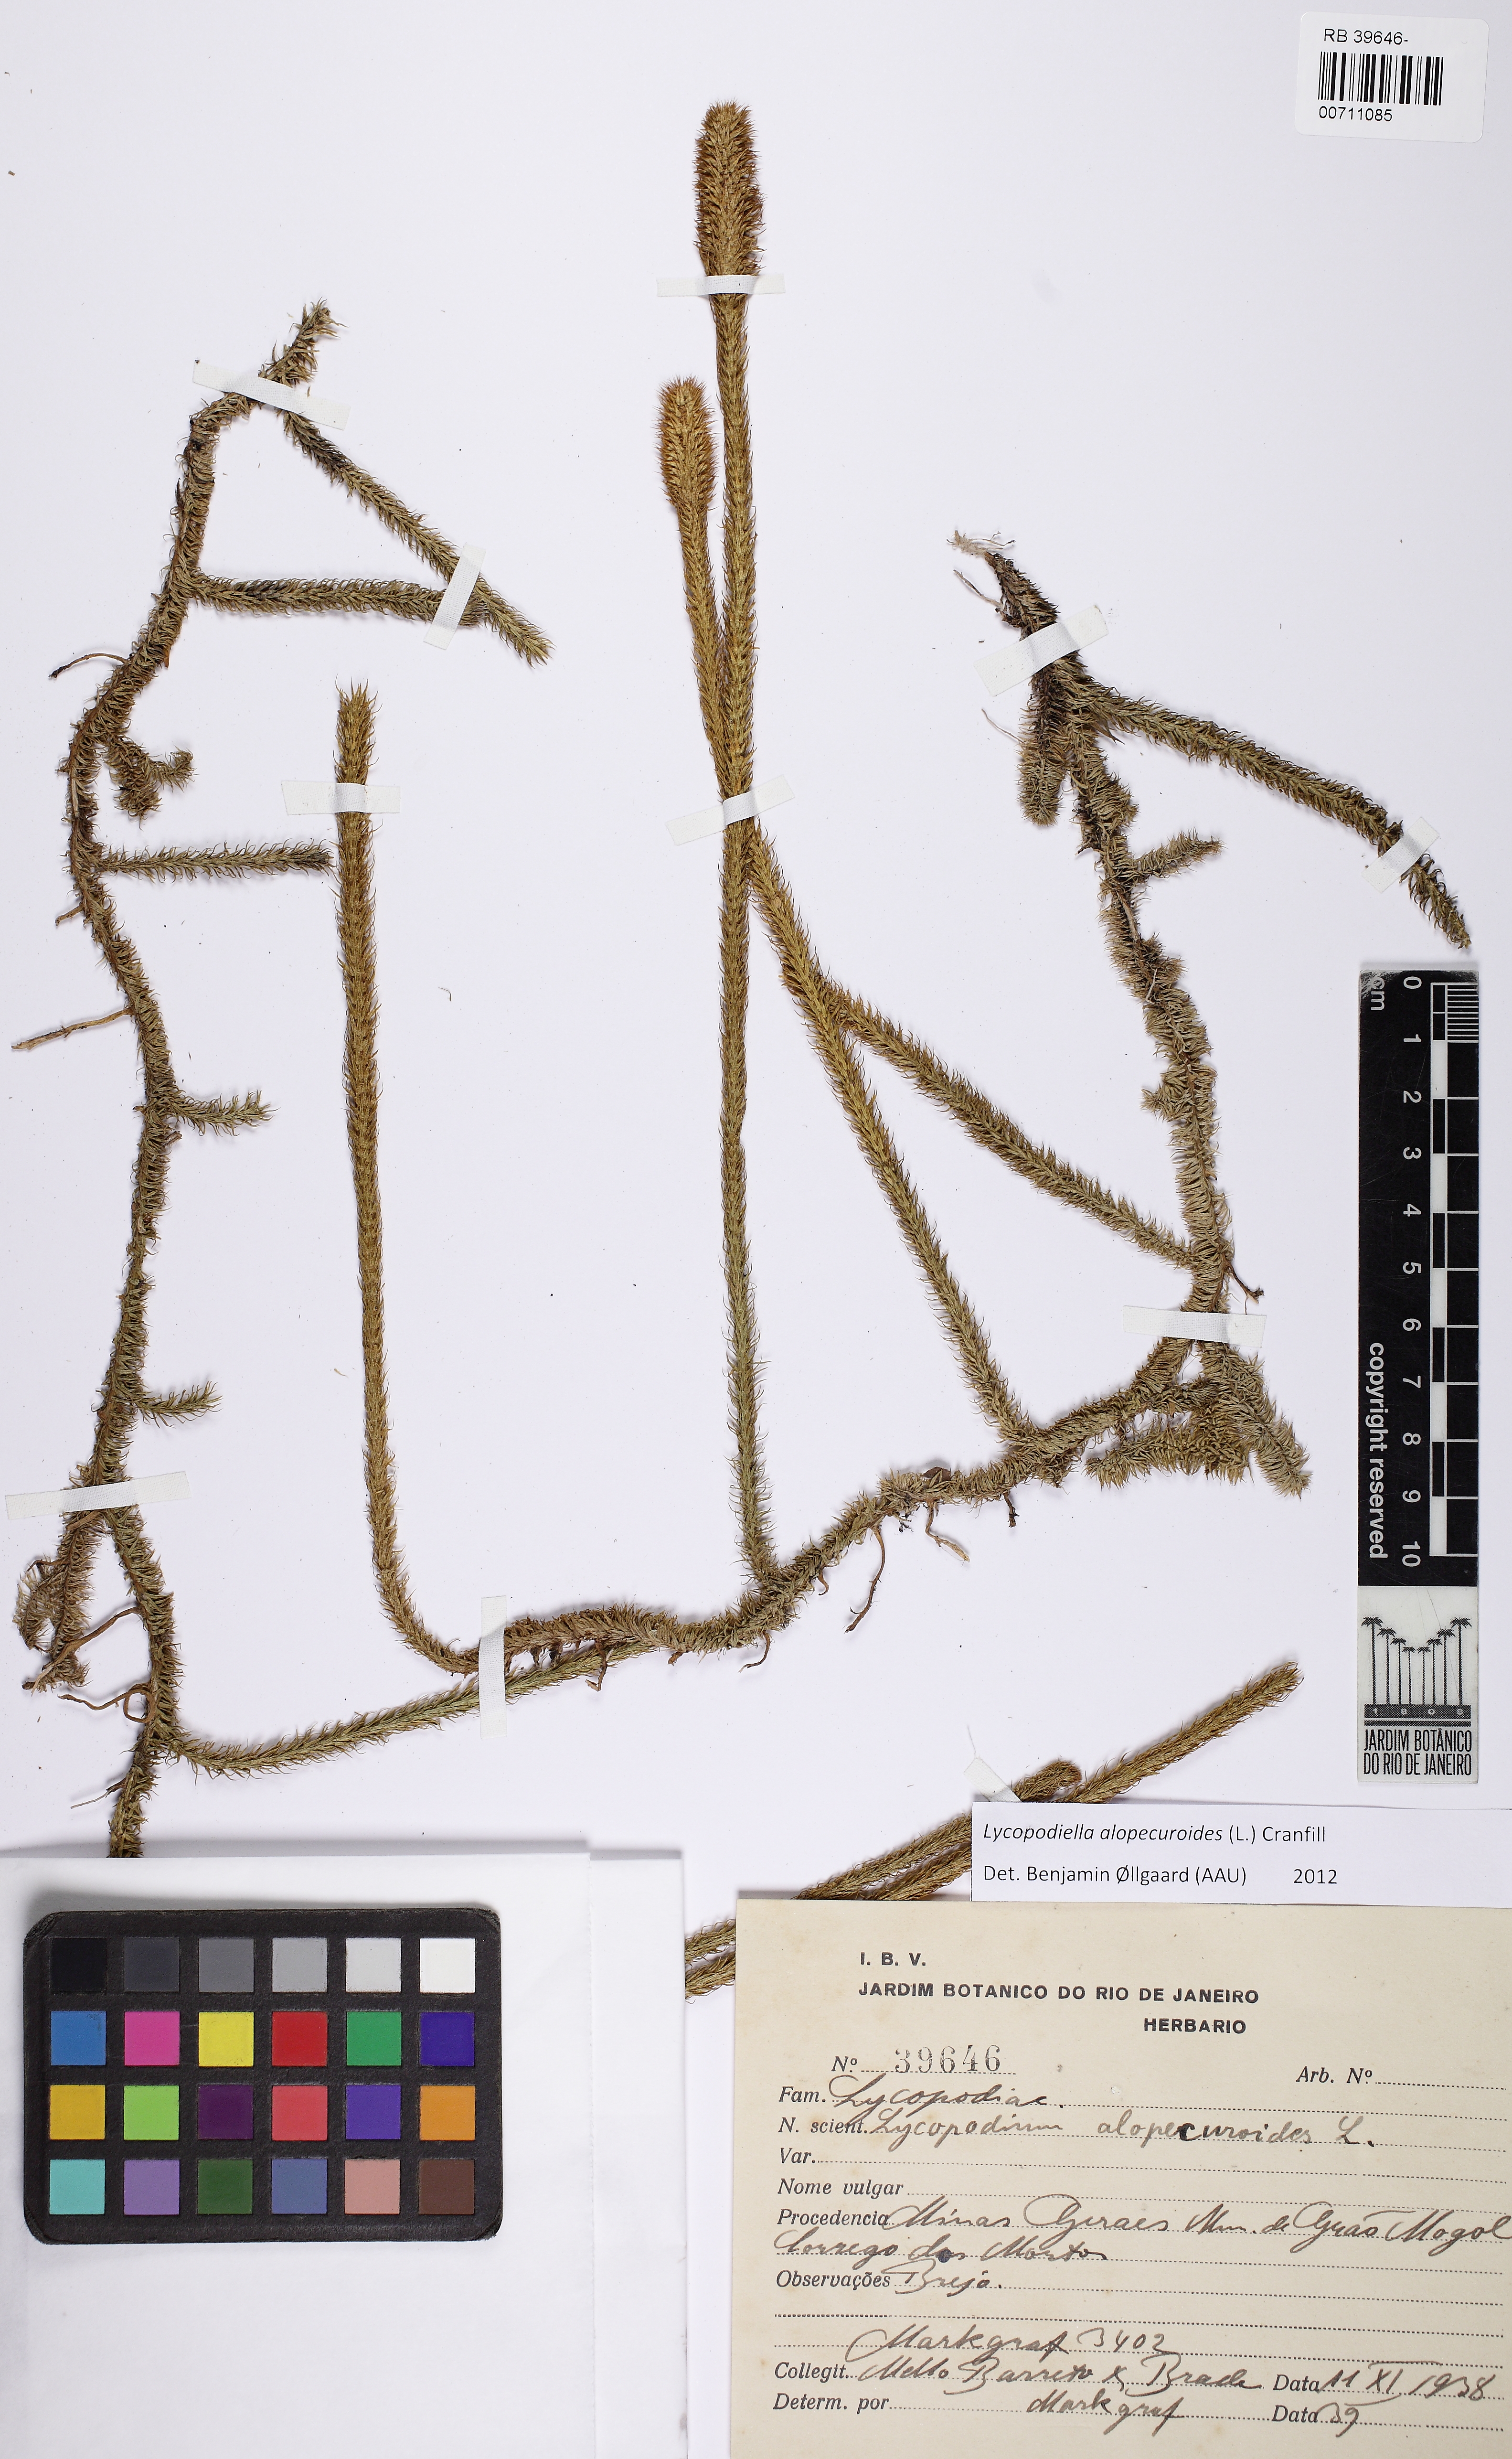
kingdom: Plantae
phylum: Tracheophyta
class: Lycopodiopsida
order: Lycopodiales
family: Lycopodiaceae
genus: Lycopodiella
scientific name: Lycopodiella alopecuroides
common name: Foxtail clubmoss
